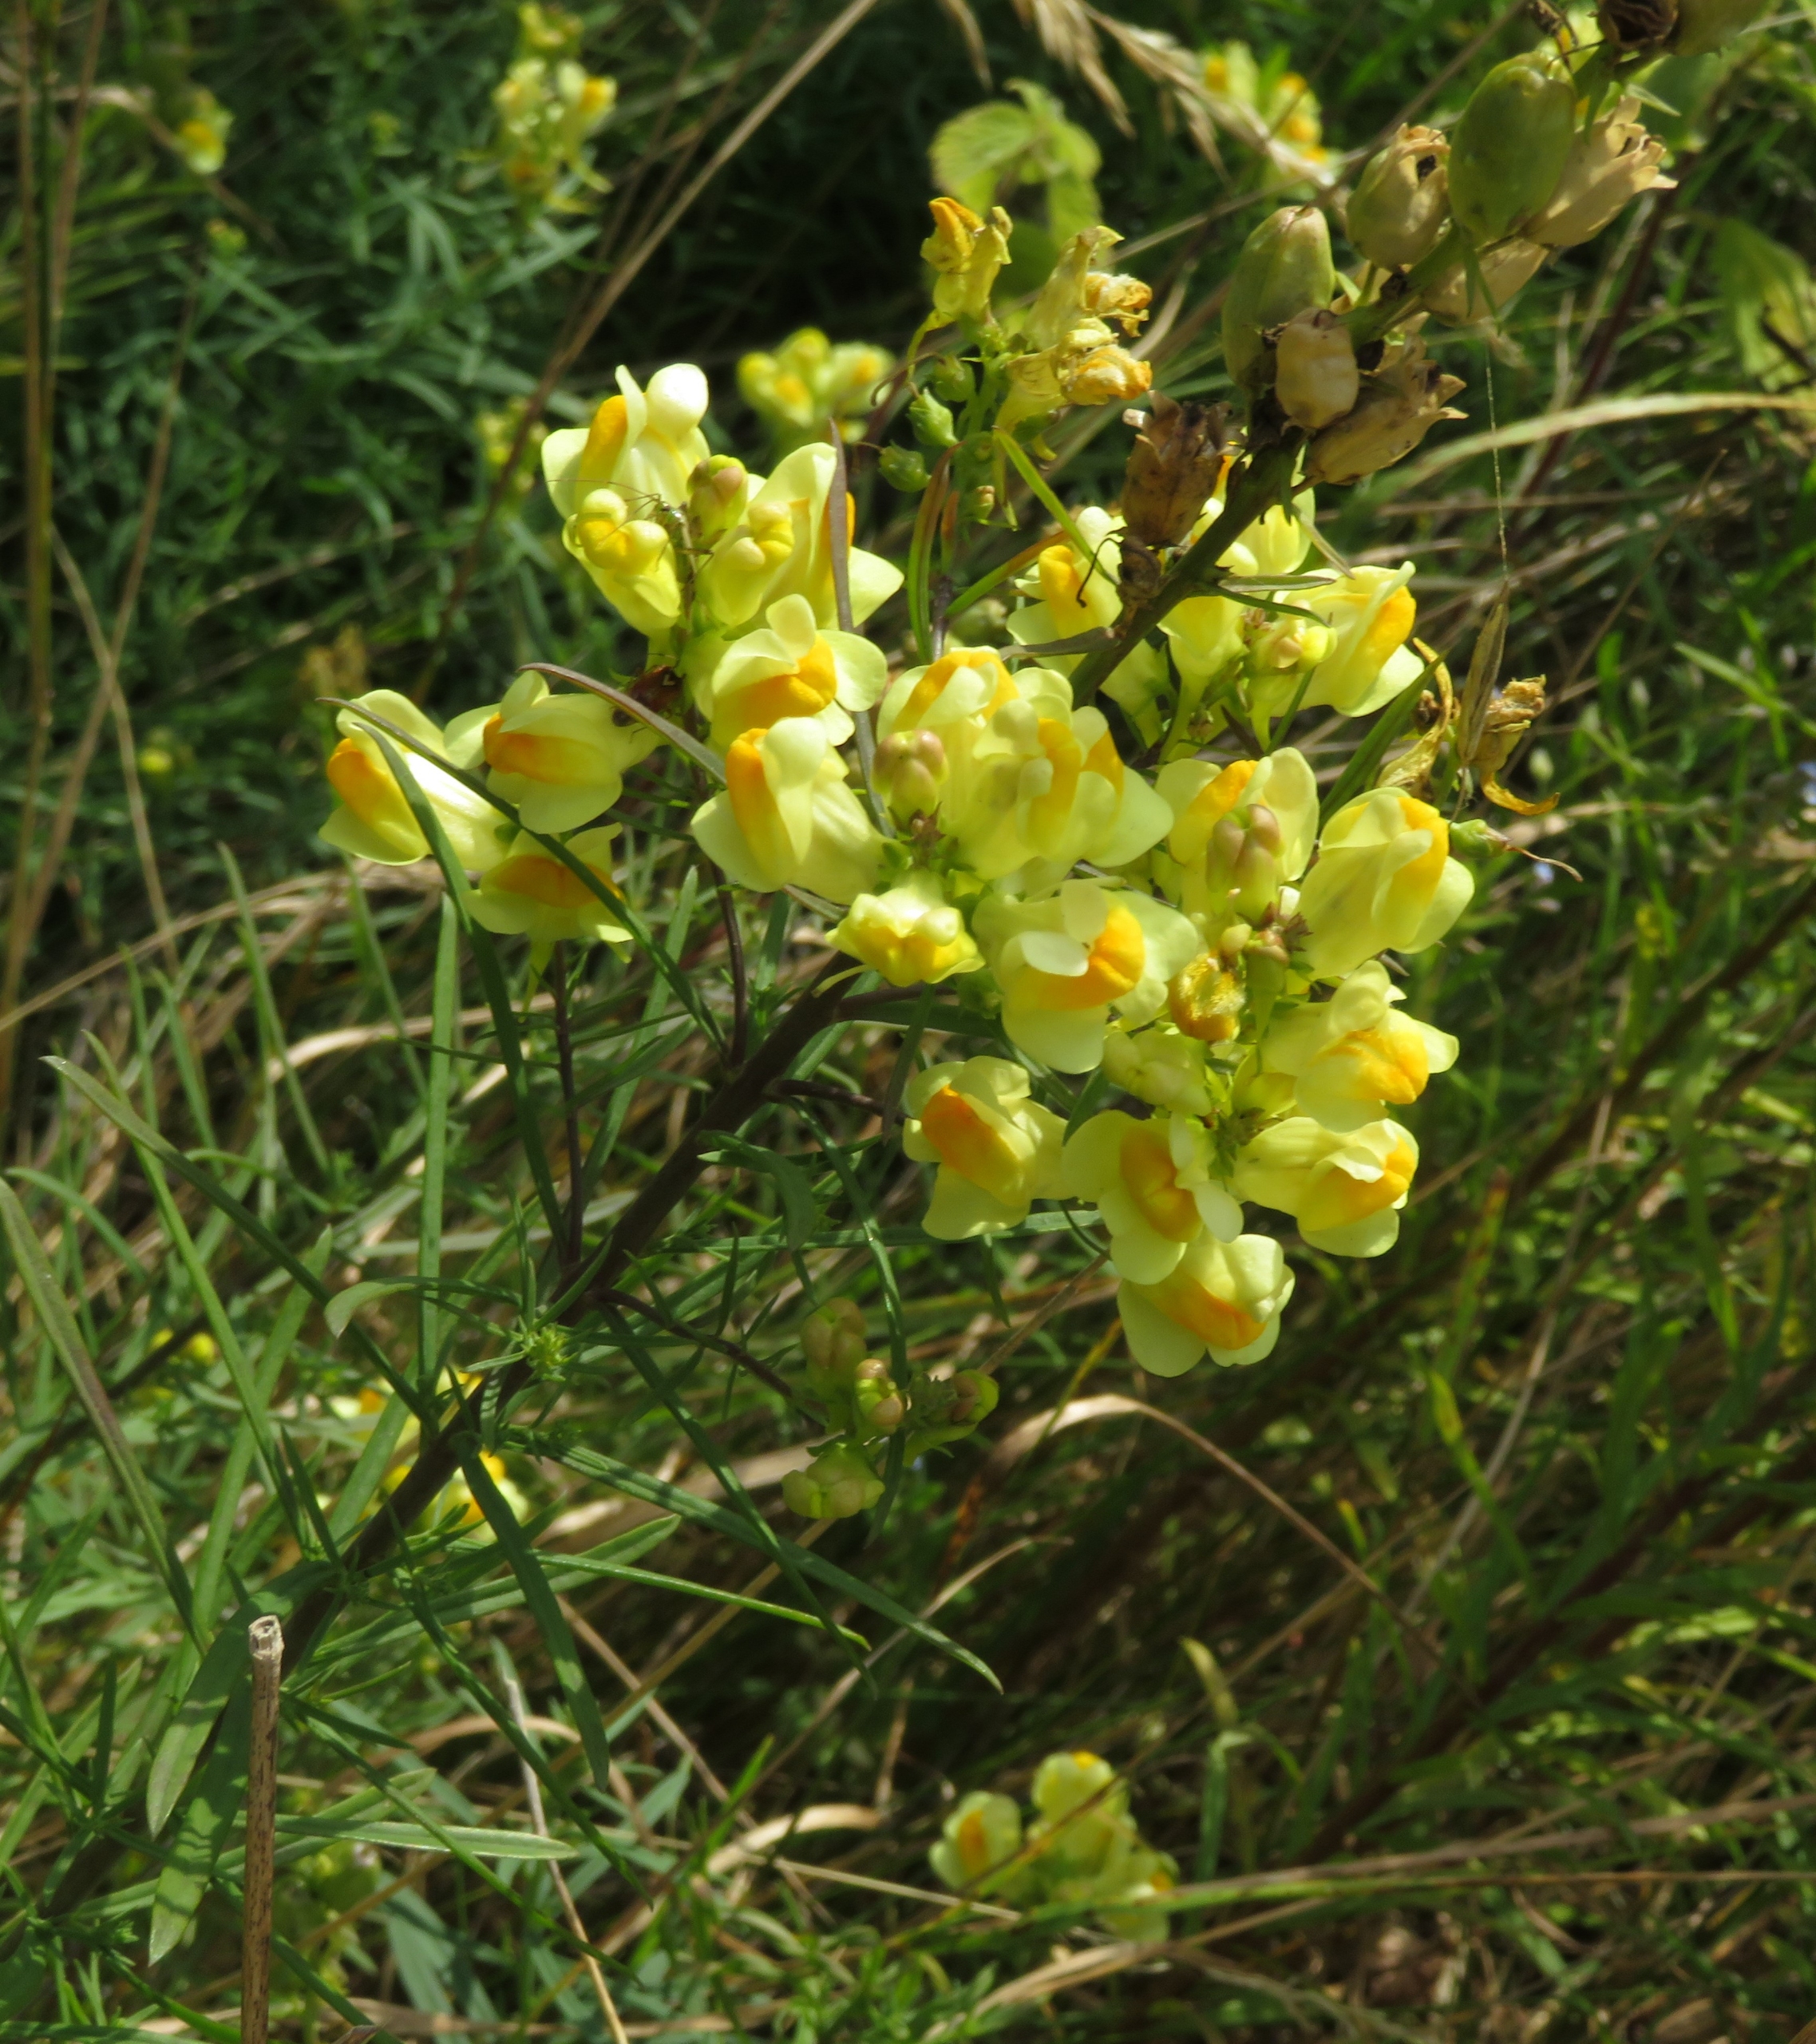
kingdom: Plantae
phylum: Tracheophyta
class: Magnoliopsida
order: Lamiales
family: Plantaginaceae
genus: Linaria
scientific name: Linaria vulgaris
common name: Almindelig torskemund
